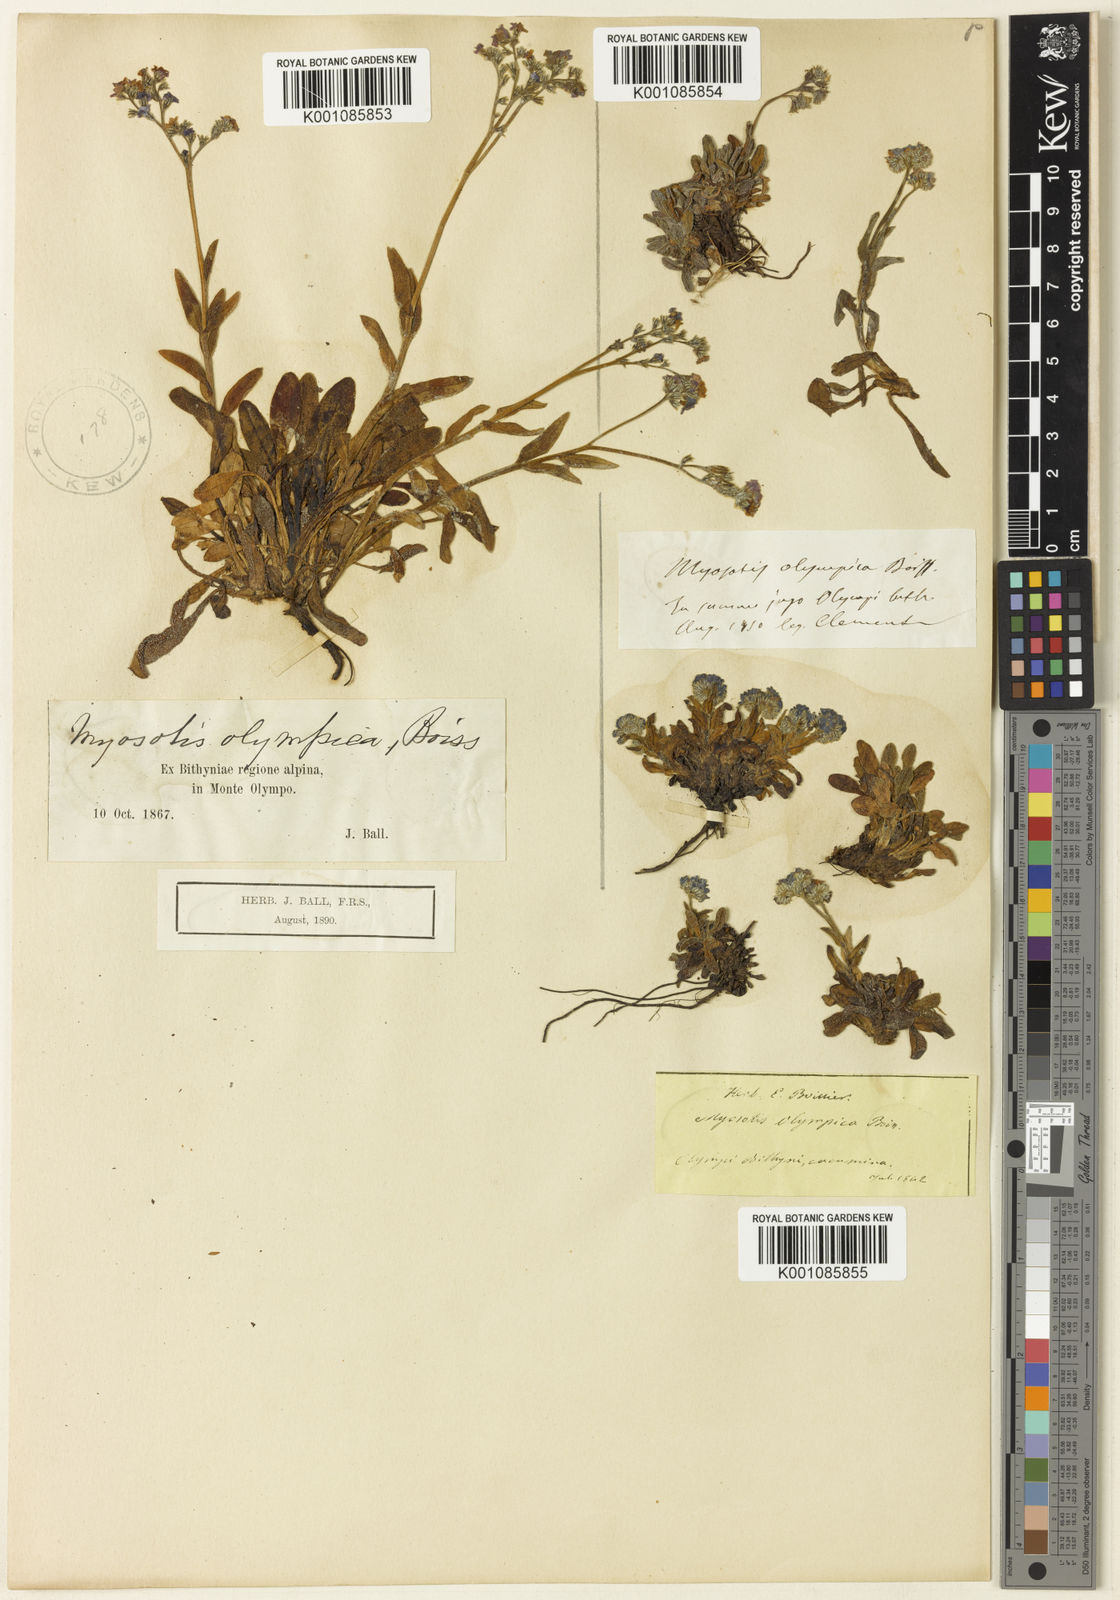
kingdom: Plantae
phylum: Tracheophyta
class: Magnoliopsida
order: Boraginales
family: Boraginaceae
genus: Myosotis
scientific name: Myosotis olympica
